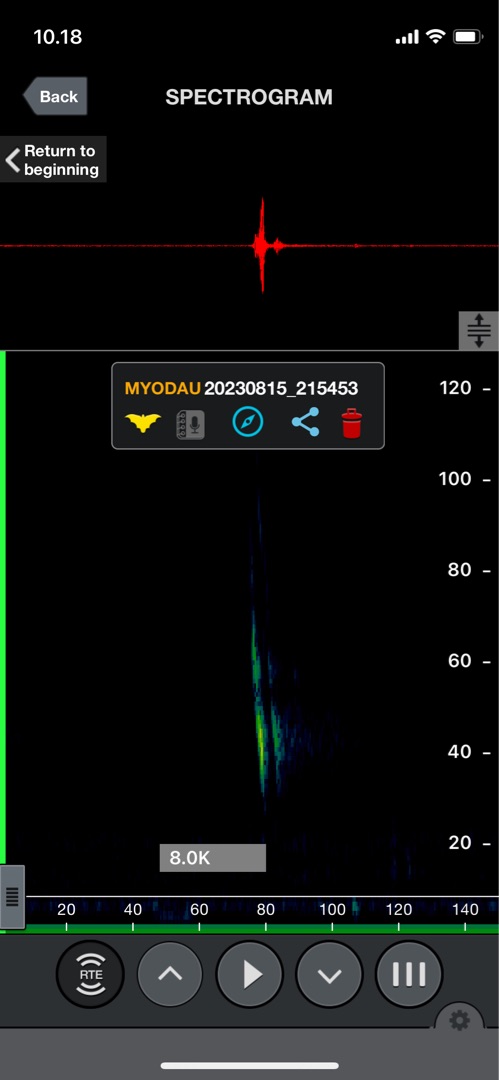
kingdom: Animalia
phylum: Chordata
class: Mammalia
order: Chiroptera
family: Vespertilionidae
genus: Myotis
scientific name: Myotis daubentonii
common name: Vandflagermus
